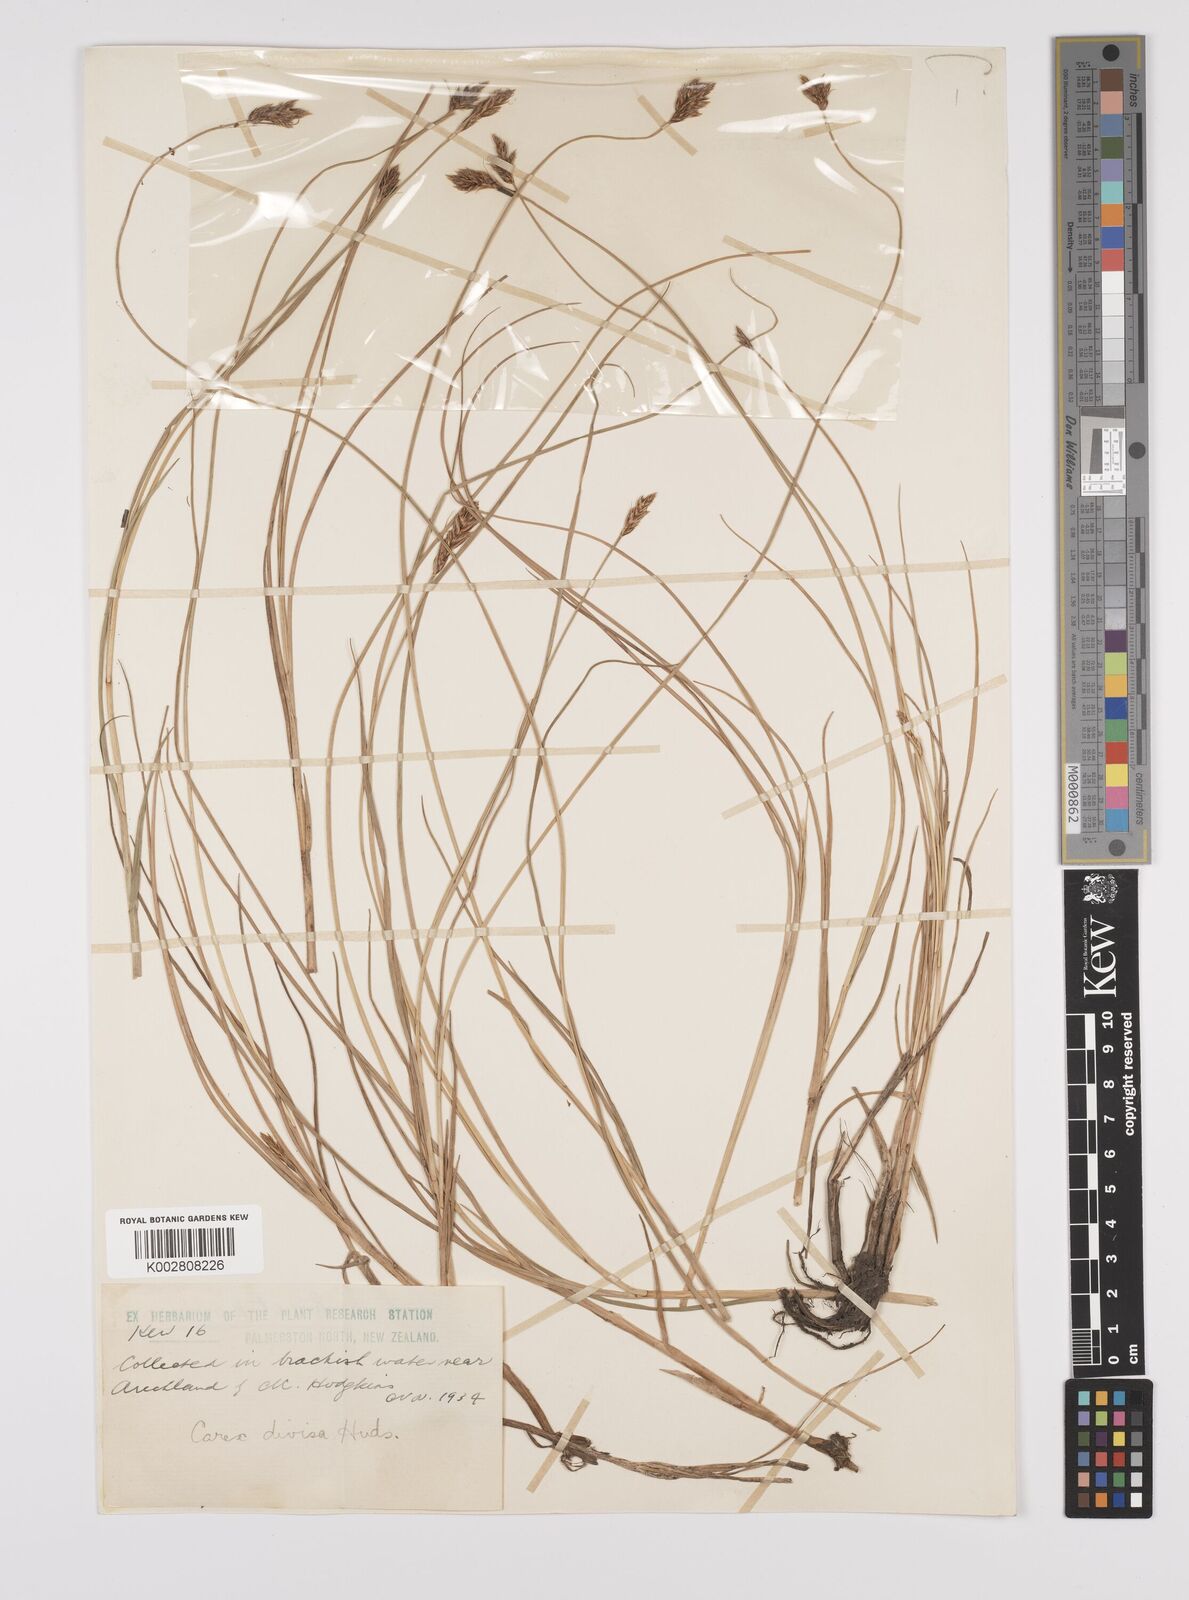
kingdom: Plantae
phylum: Tracheophyta
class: Liliopsida
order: Poales
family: Cyperaceae
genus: Carex
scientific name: Carex divisa
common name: Divided sedge
